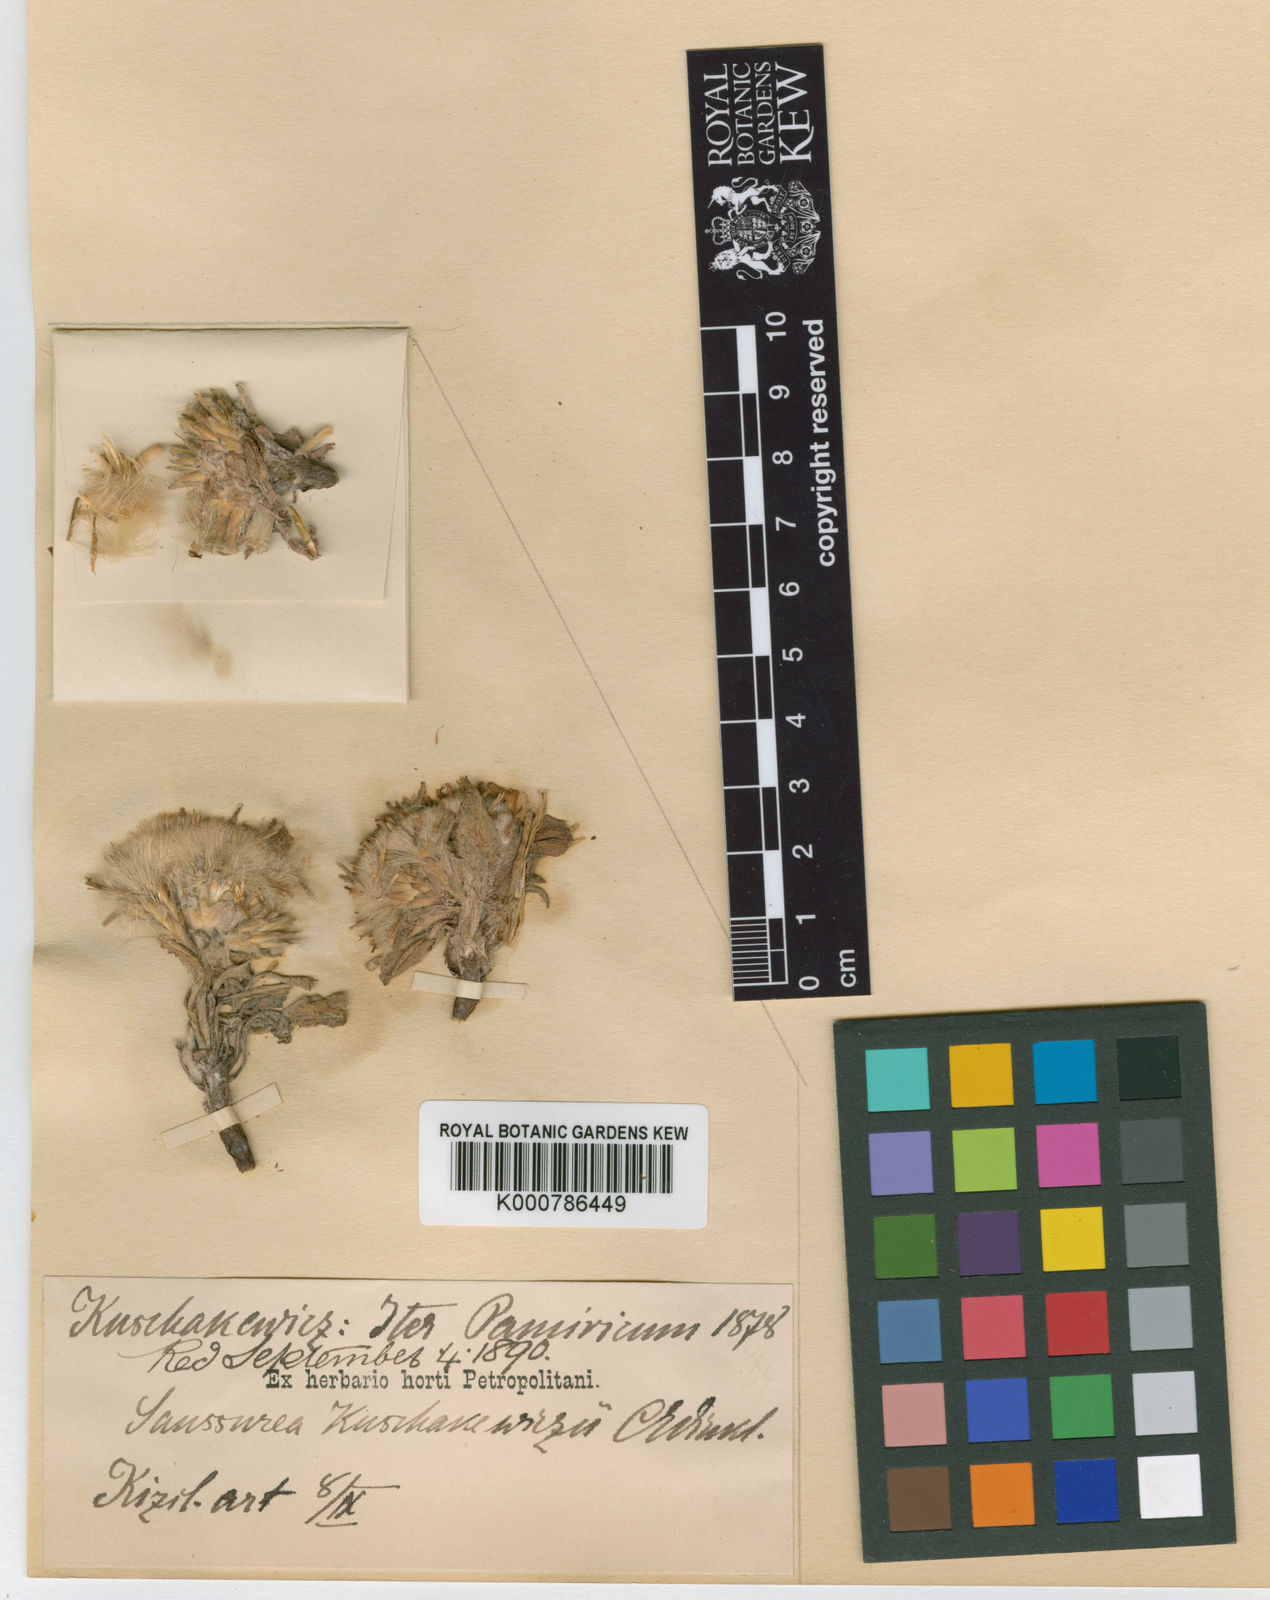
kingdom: Plantae
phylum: Tracheophyta
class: Magnoliopsida
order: Asterales
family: Asteraceae
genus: Saussurea
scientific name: Saussurea elliptica
